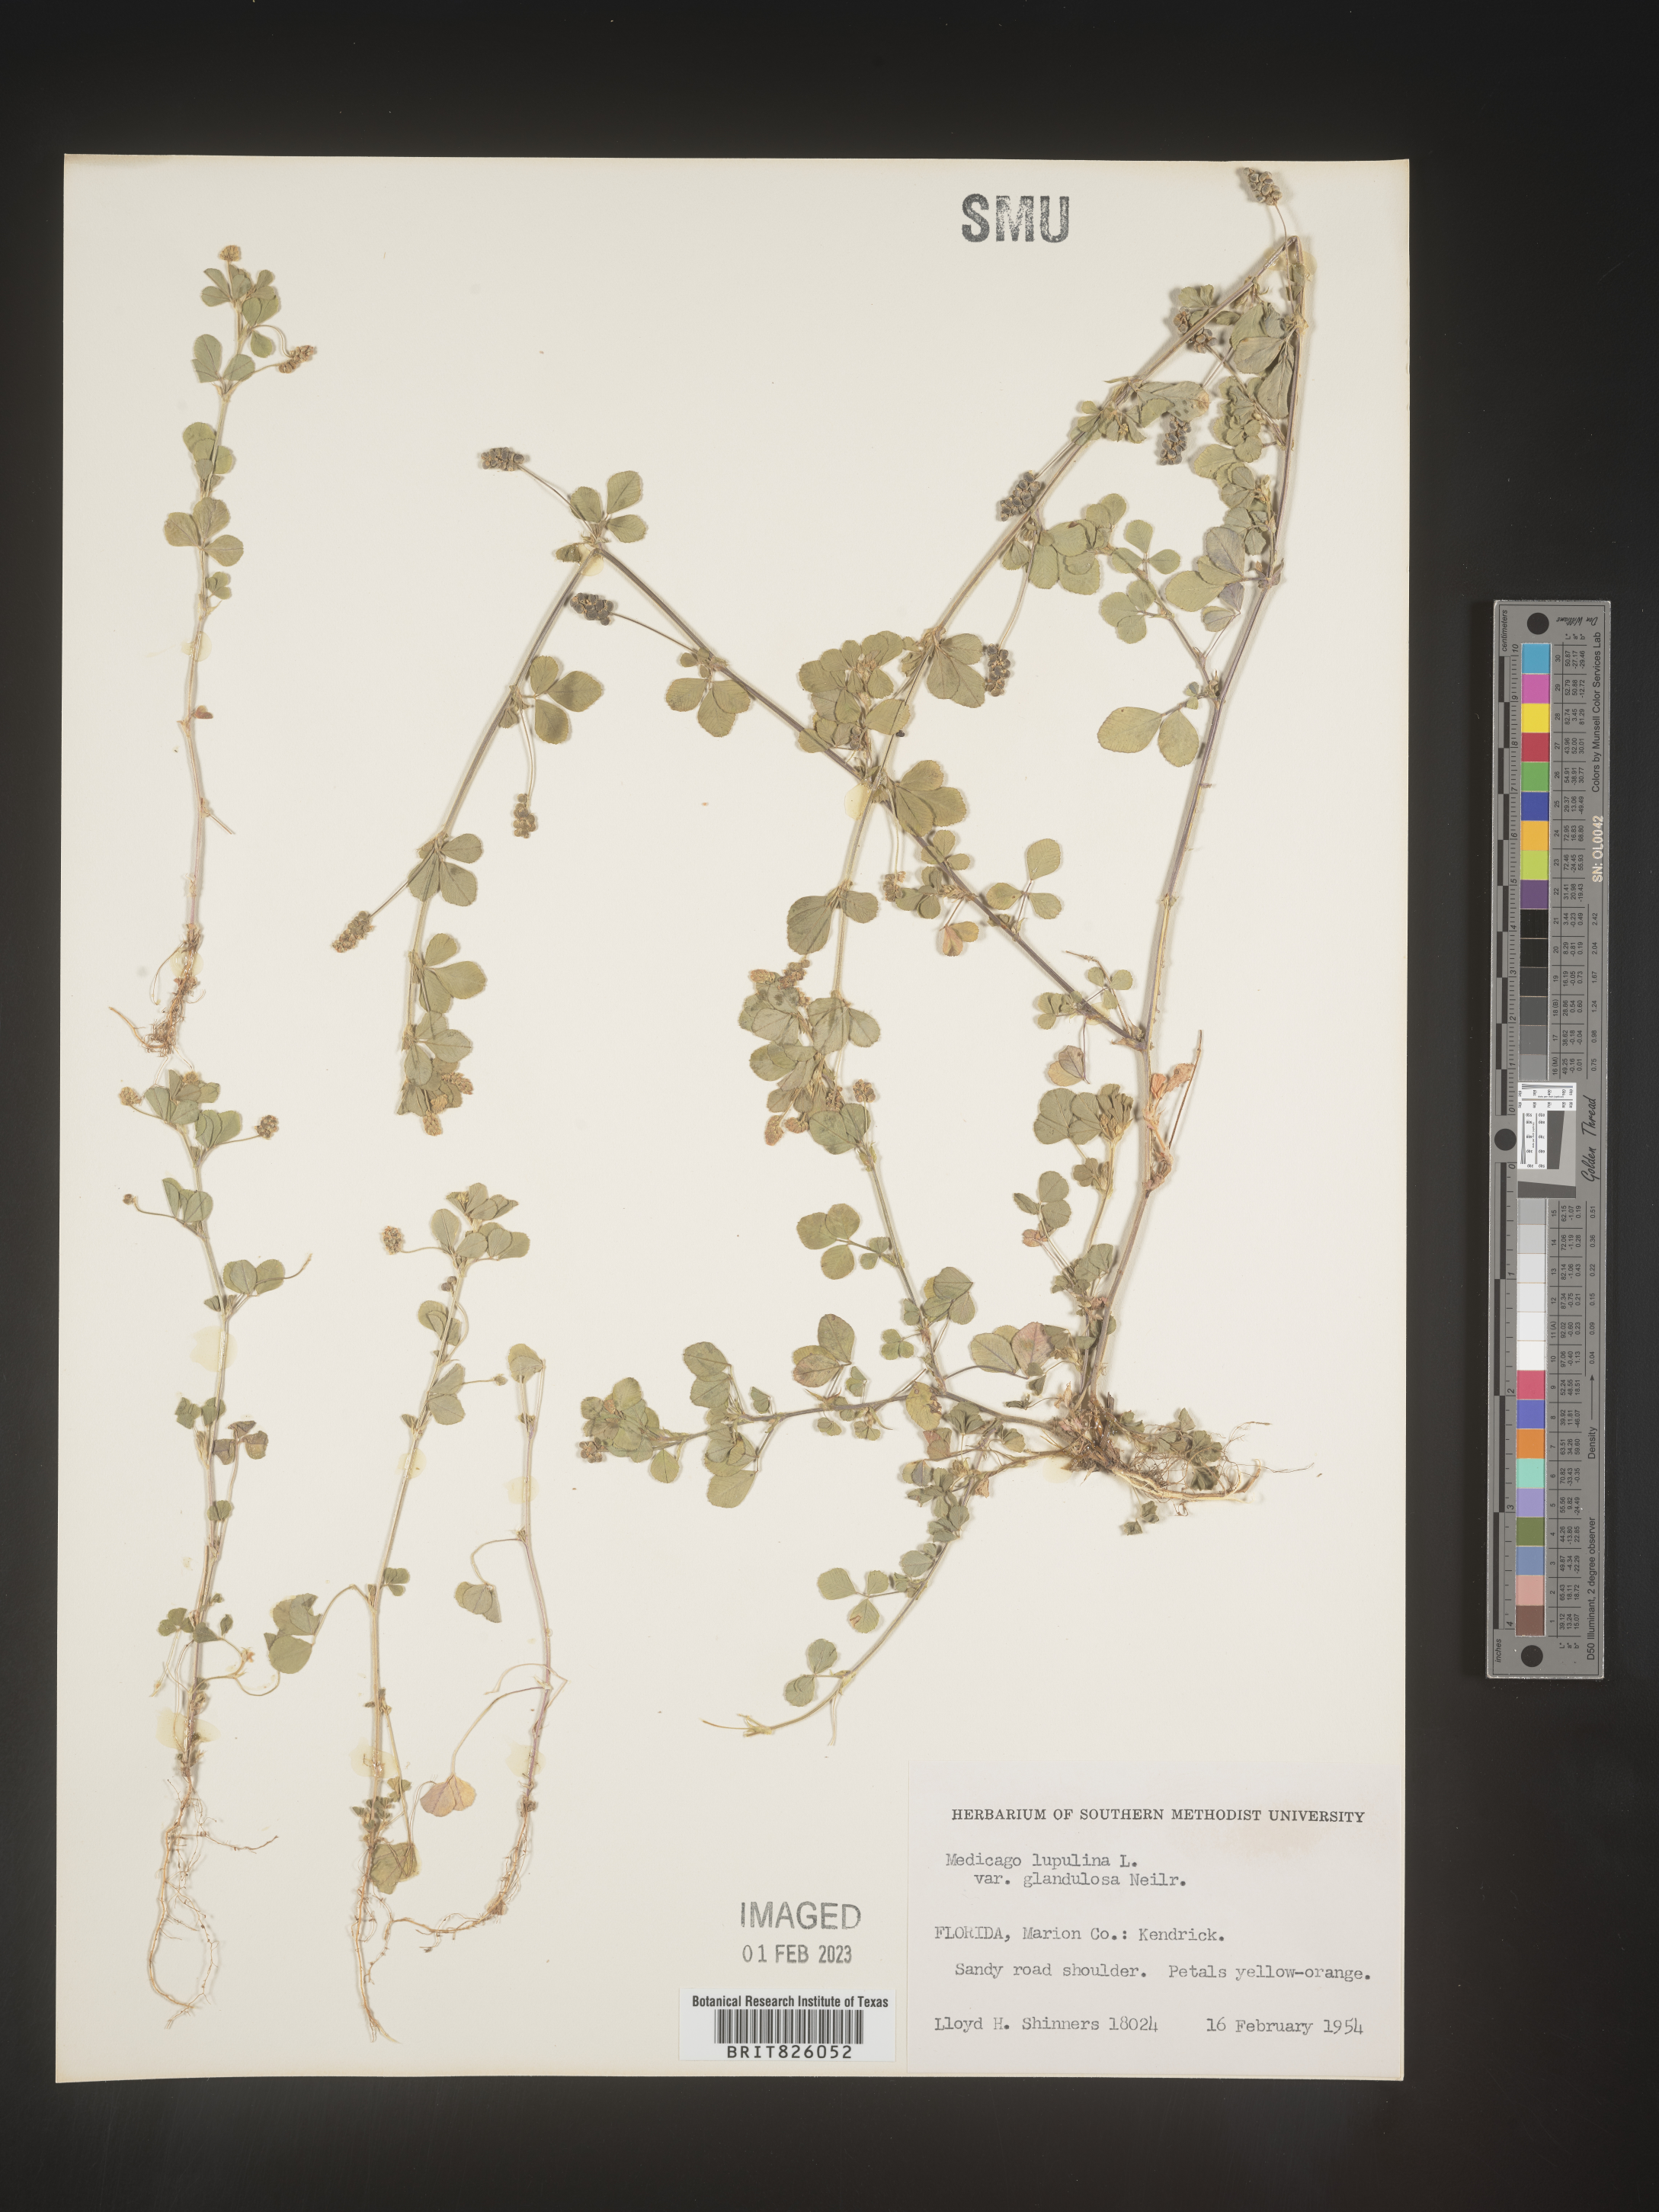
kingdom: Plantae
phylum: Tracheophyta
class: Magnoliopsida
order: Fabales
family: Fabaceae
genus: Medicago
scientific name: Medicago lupulina
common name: Black medick
